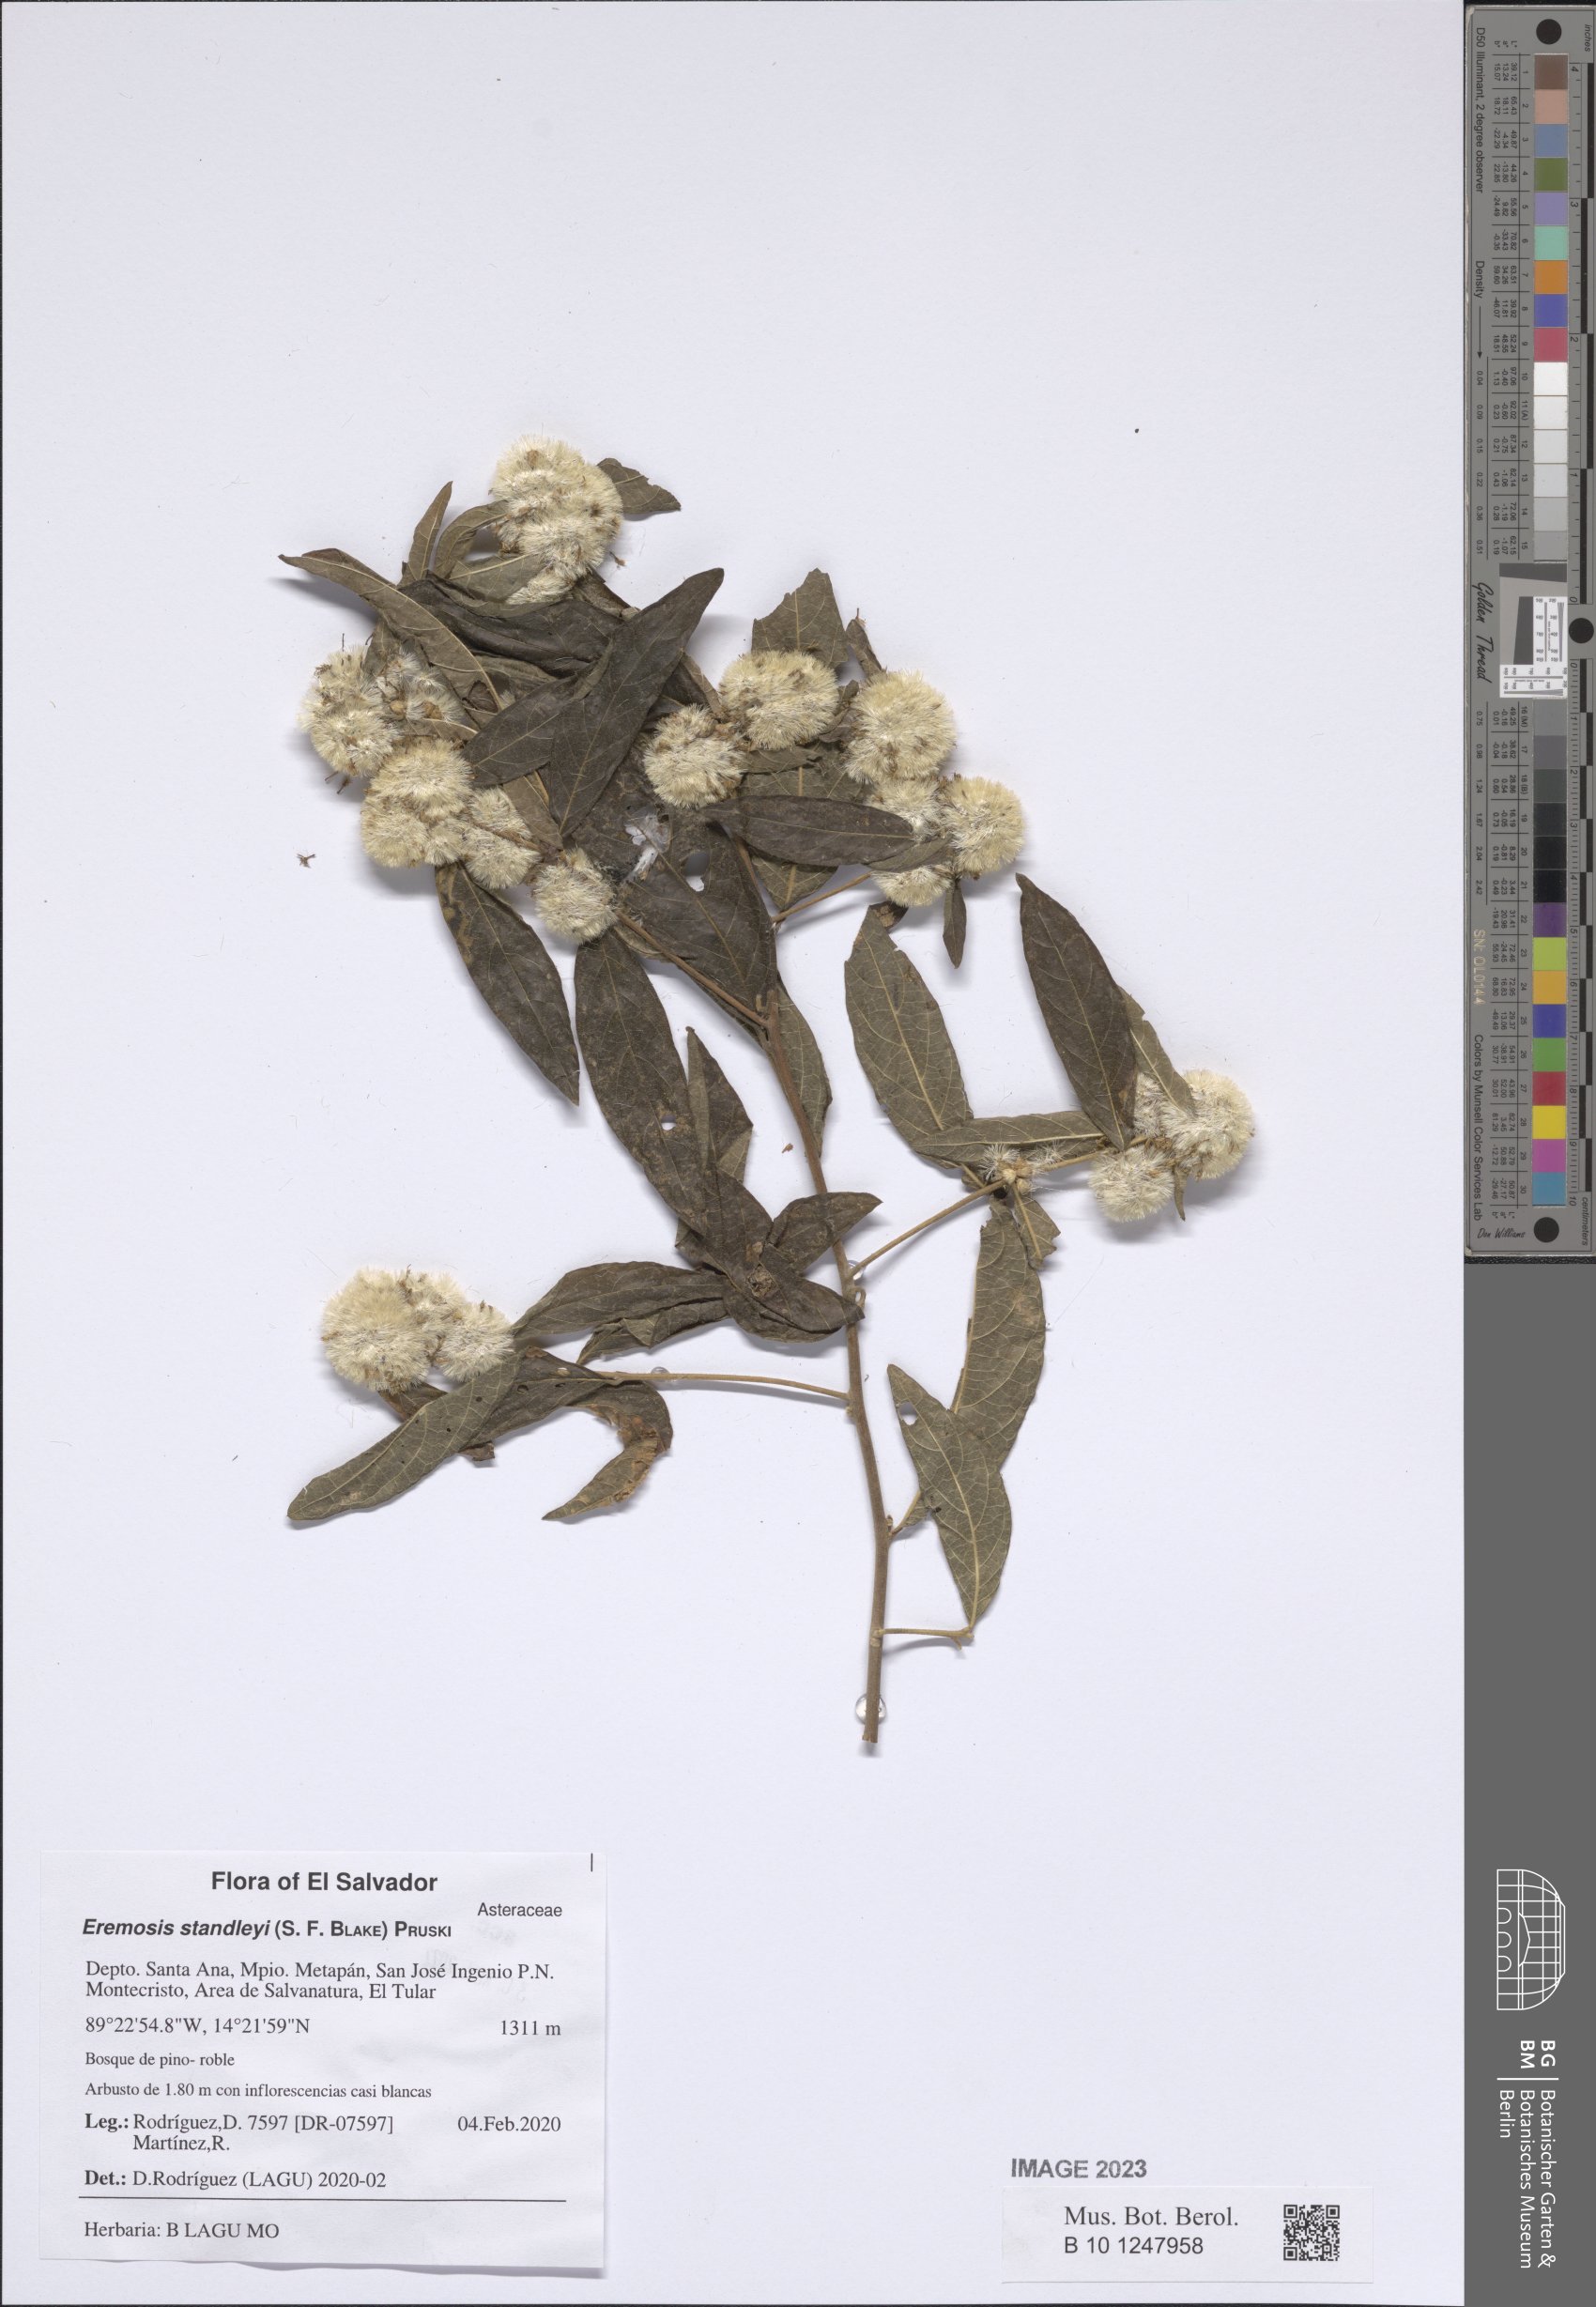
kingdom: Plantae
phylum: Tracheophyta
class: Magnoliopsida
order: Asterales
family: Asteraceae
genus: Eremosis
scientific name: Eremosis standleyi
